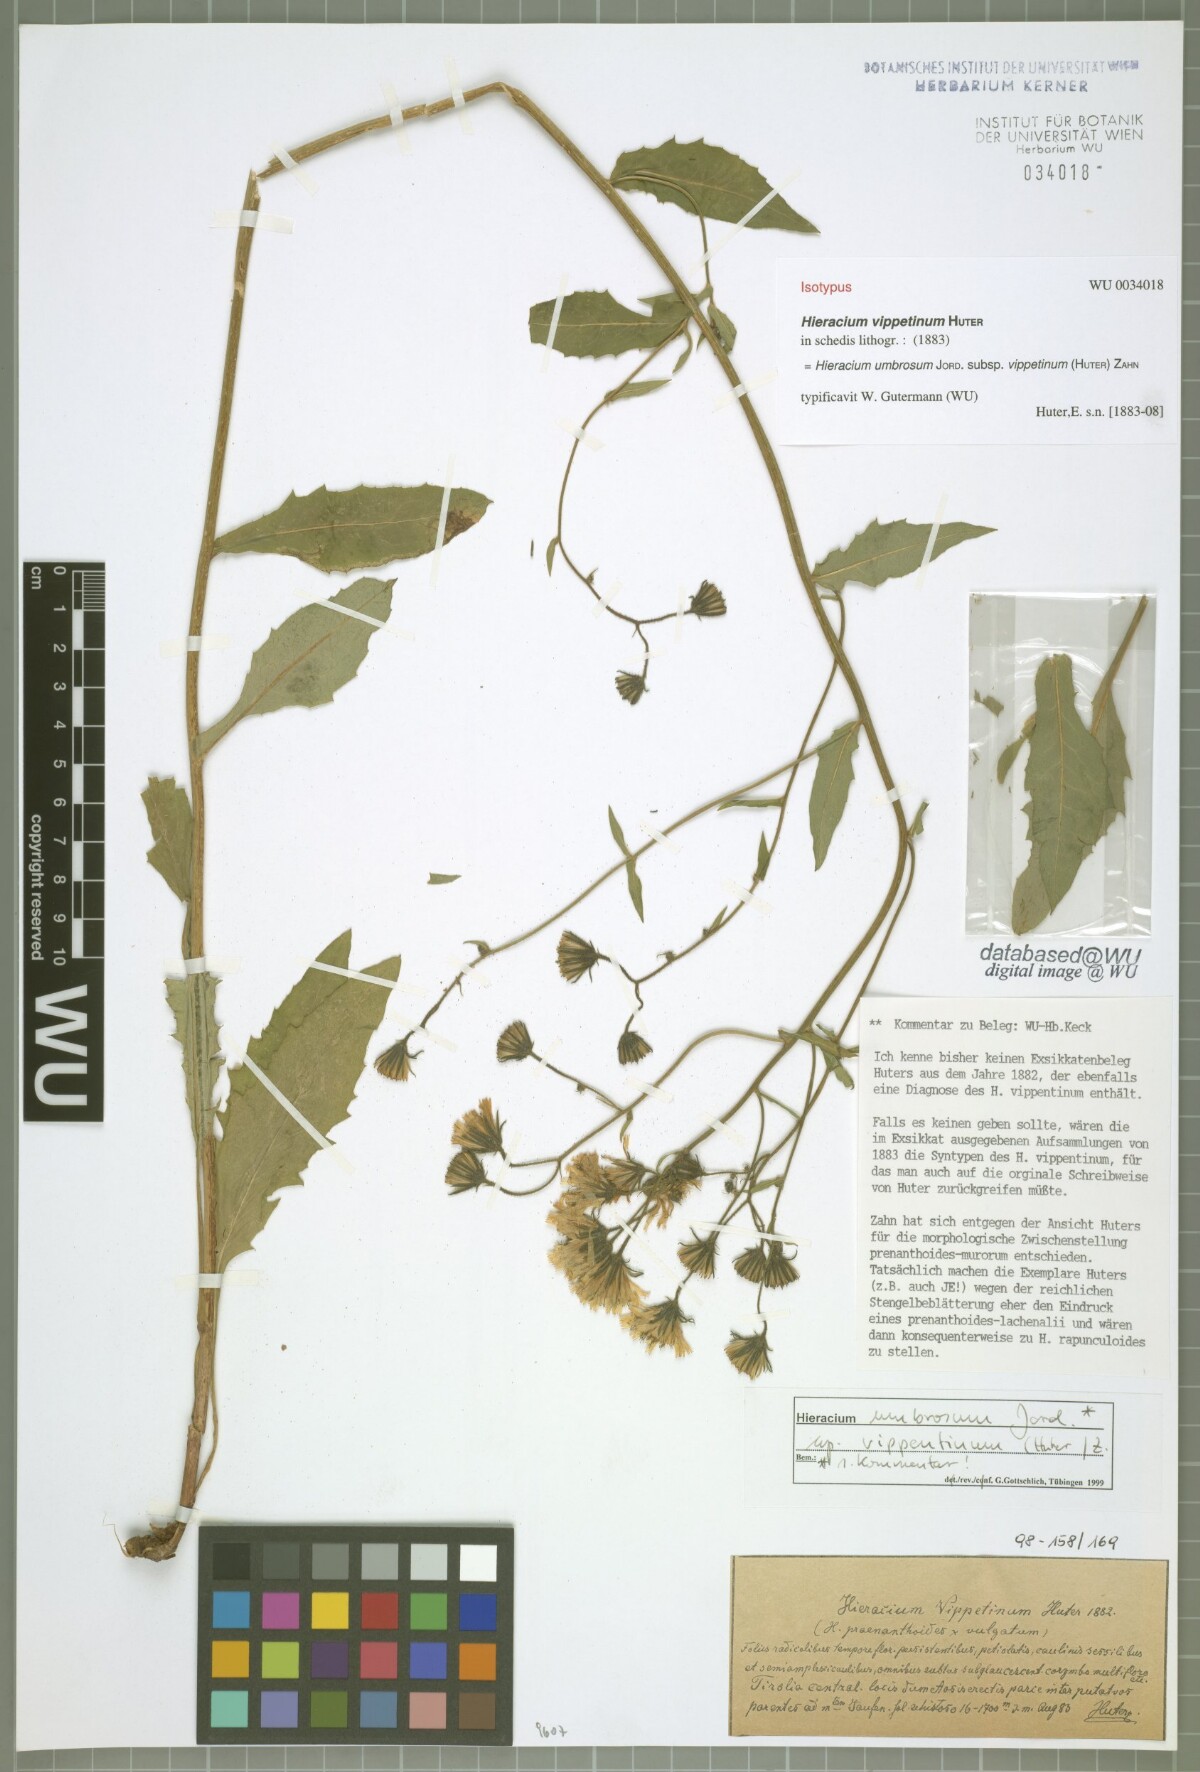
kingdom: Plantae
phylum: Tracheophyta
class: Magnoliopsida
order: Asterales
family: Asteraceae
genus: Hieracium
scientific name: Hieracium umbrosum
